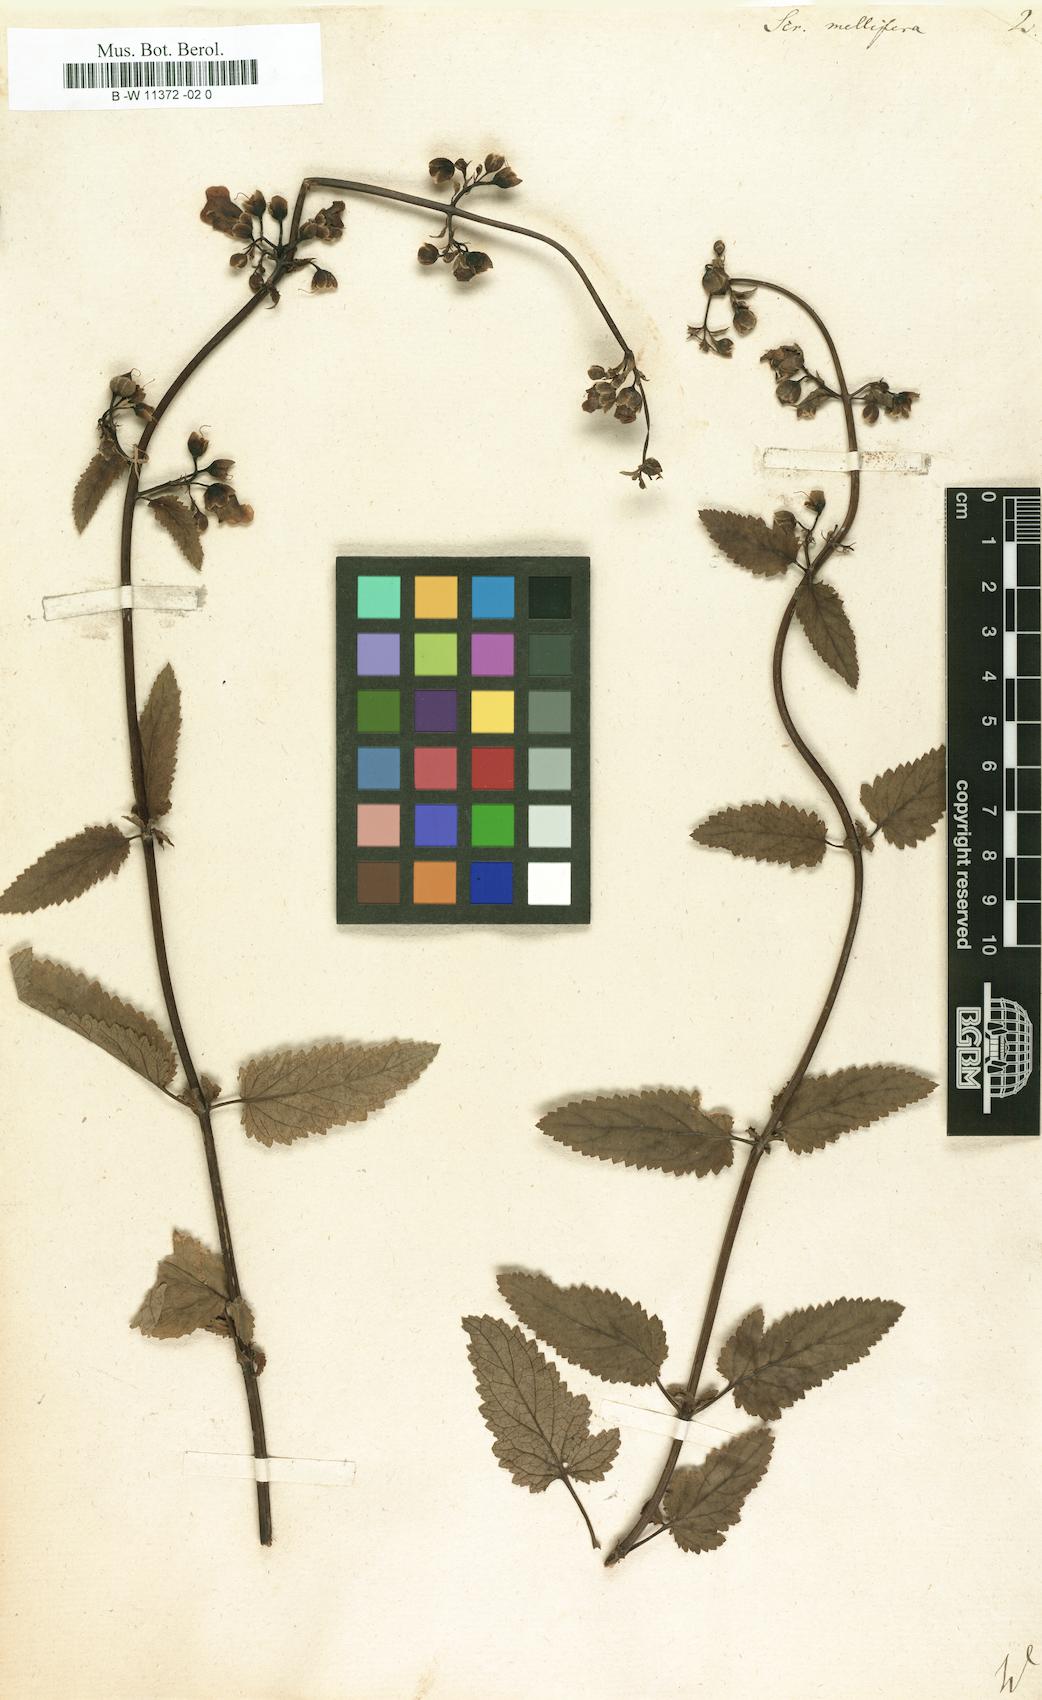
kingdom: Plantae
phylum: Tracheophyta
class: Magnoliopsida
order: Lamiales
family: Scrophulariaceae
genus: Scrophularia
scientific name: Scrophularia
